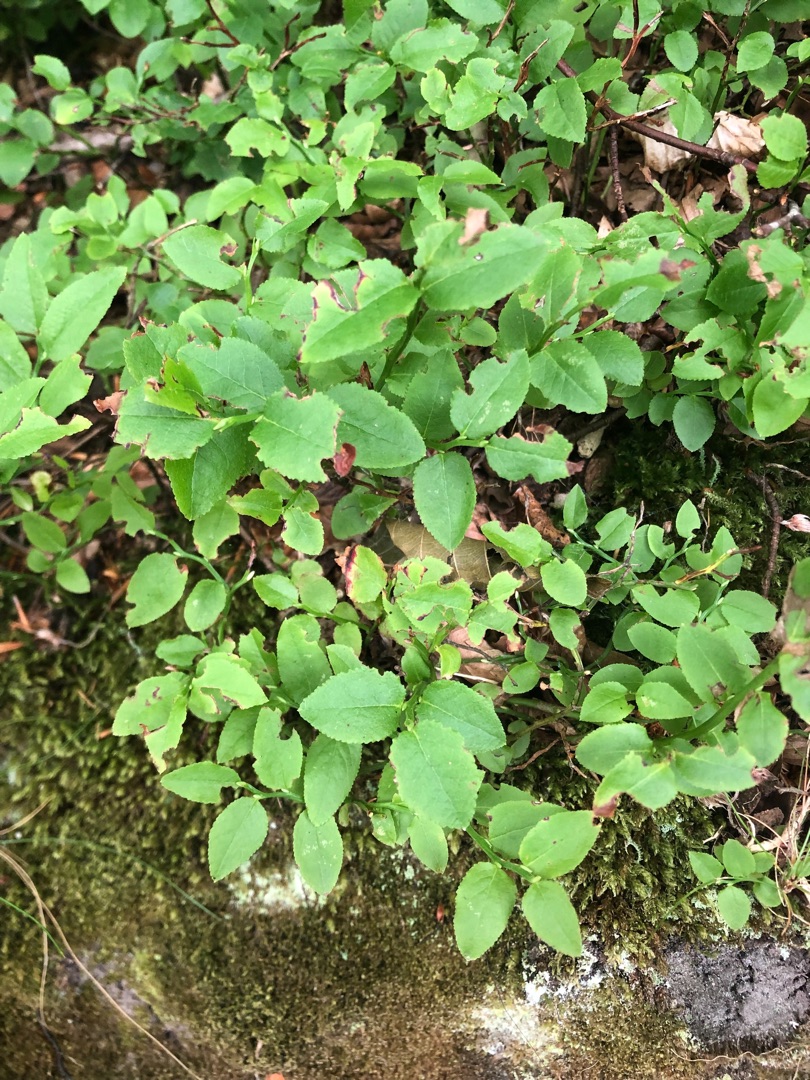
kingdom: Plantae
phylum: Tracheophyta
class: Magnoliopsida
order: Ericales
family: Ericaceae
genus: Vaccinium
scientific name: Vaccinium myrtillus
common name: Blåbær
